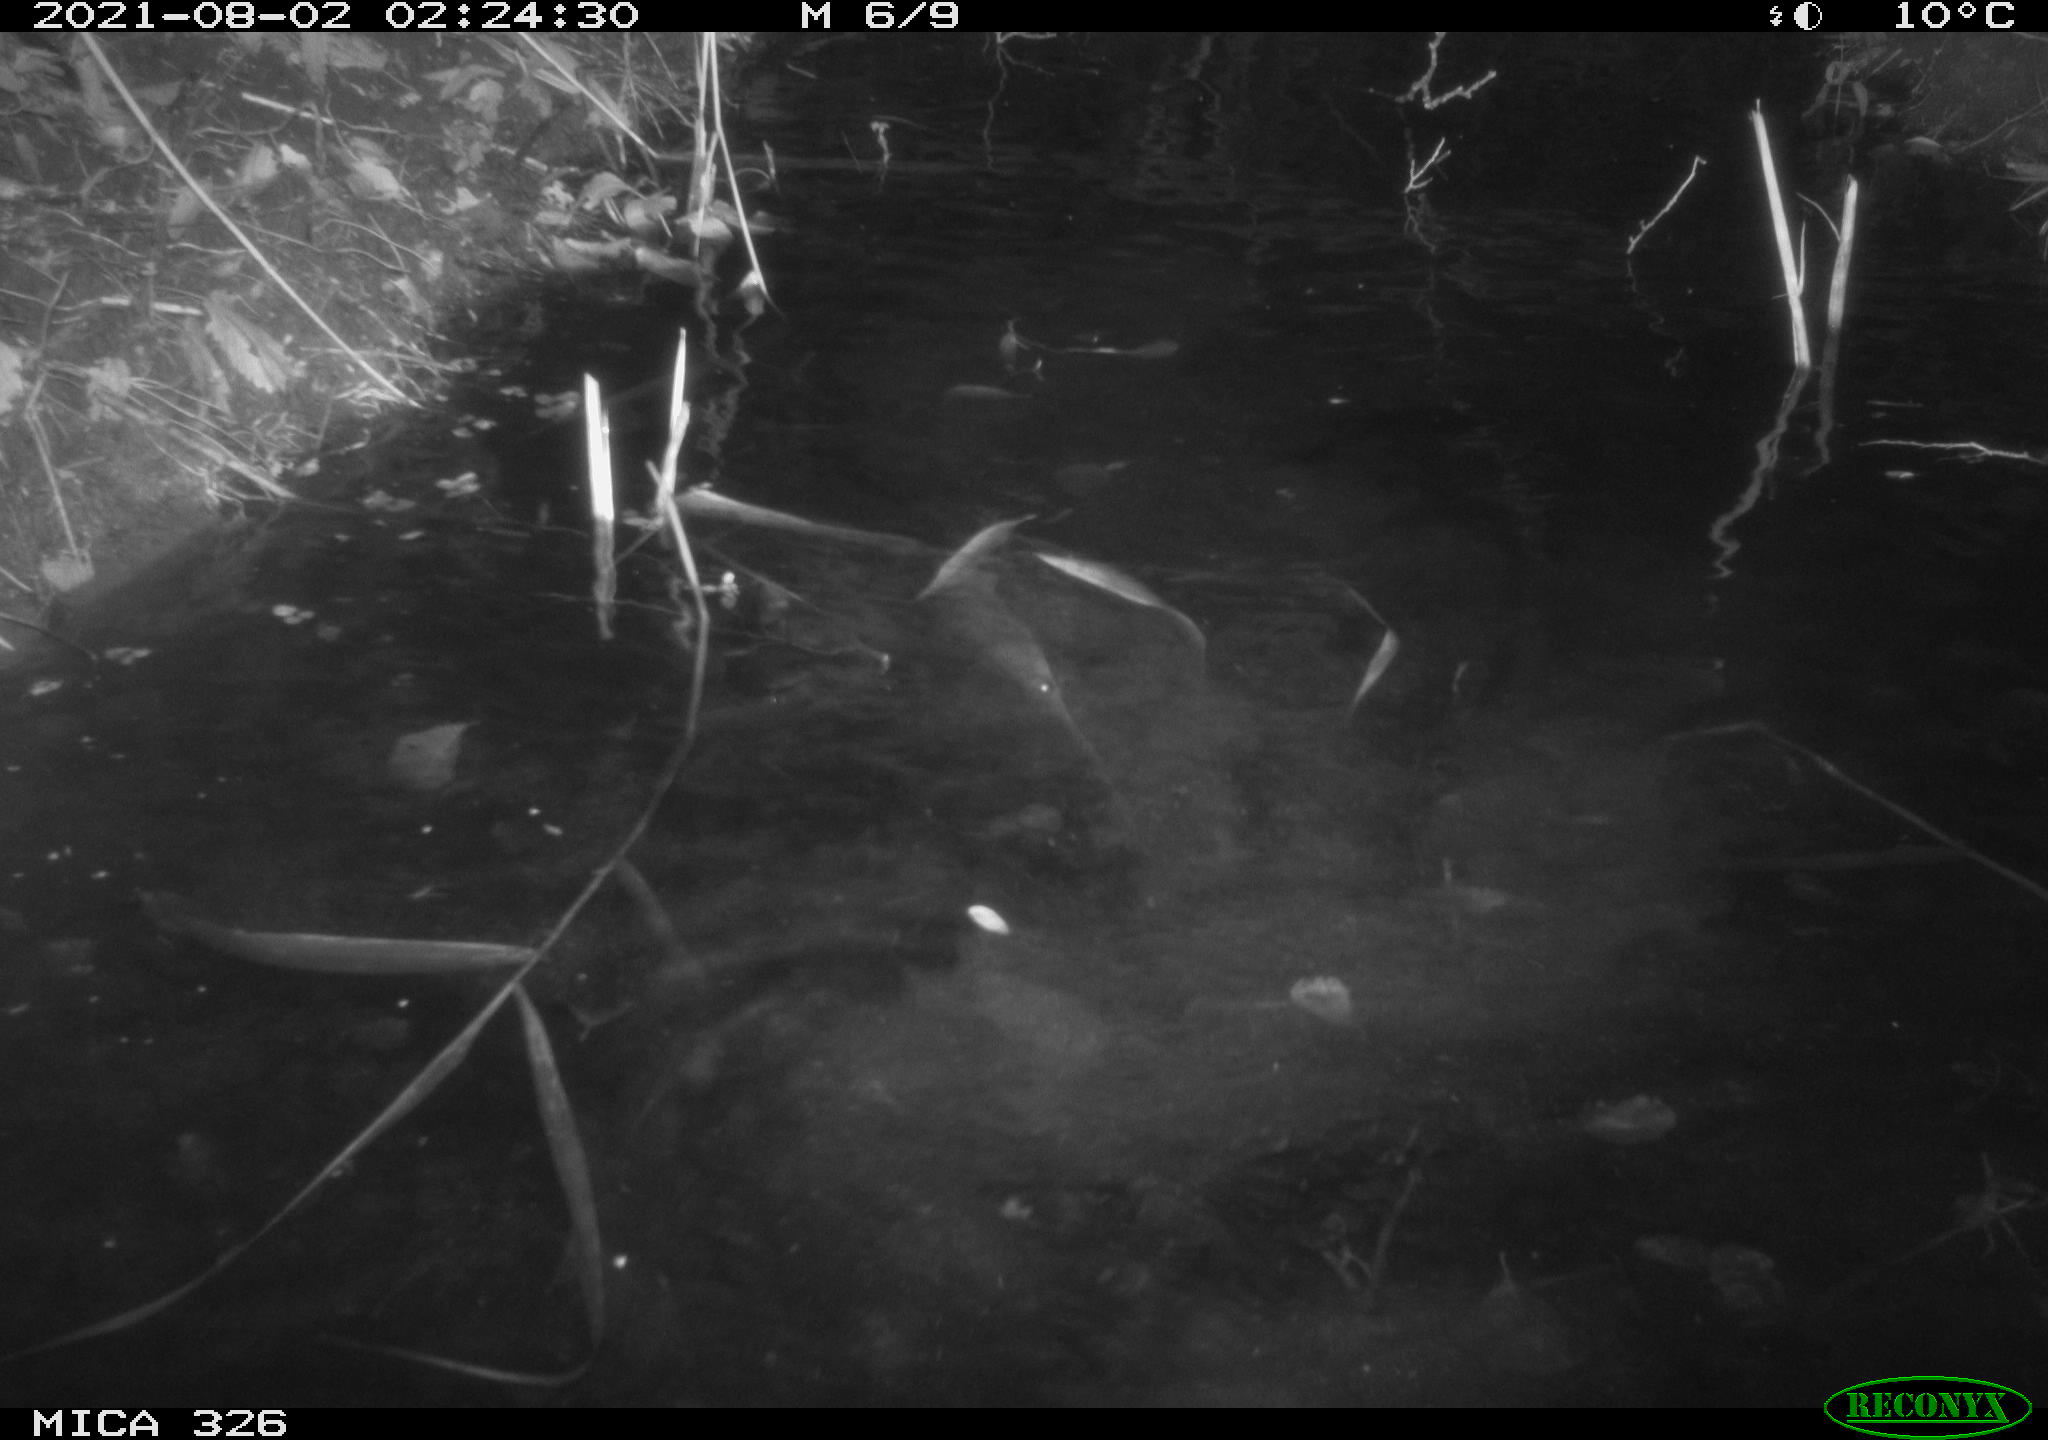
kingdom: Animalia
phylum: Chordata
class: Mammalia
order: Rodentia
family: Myocastoridae
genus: Myocastor
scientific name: Myocastor coypus
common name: Coypu
